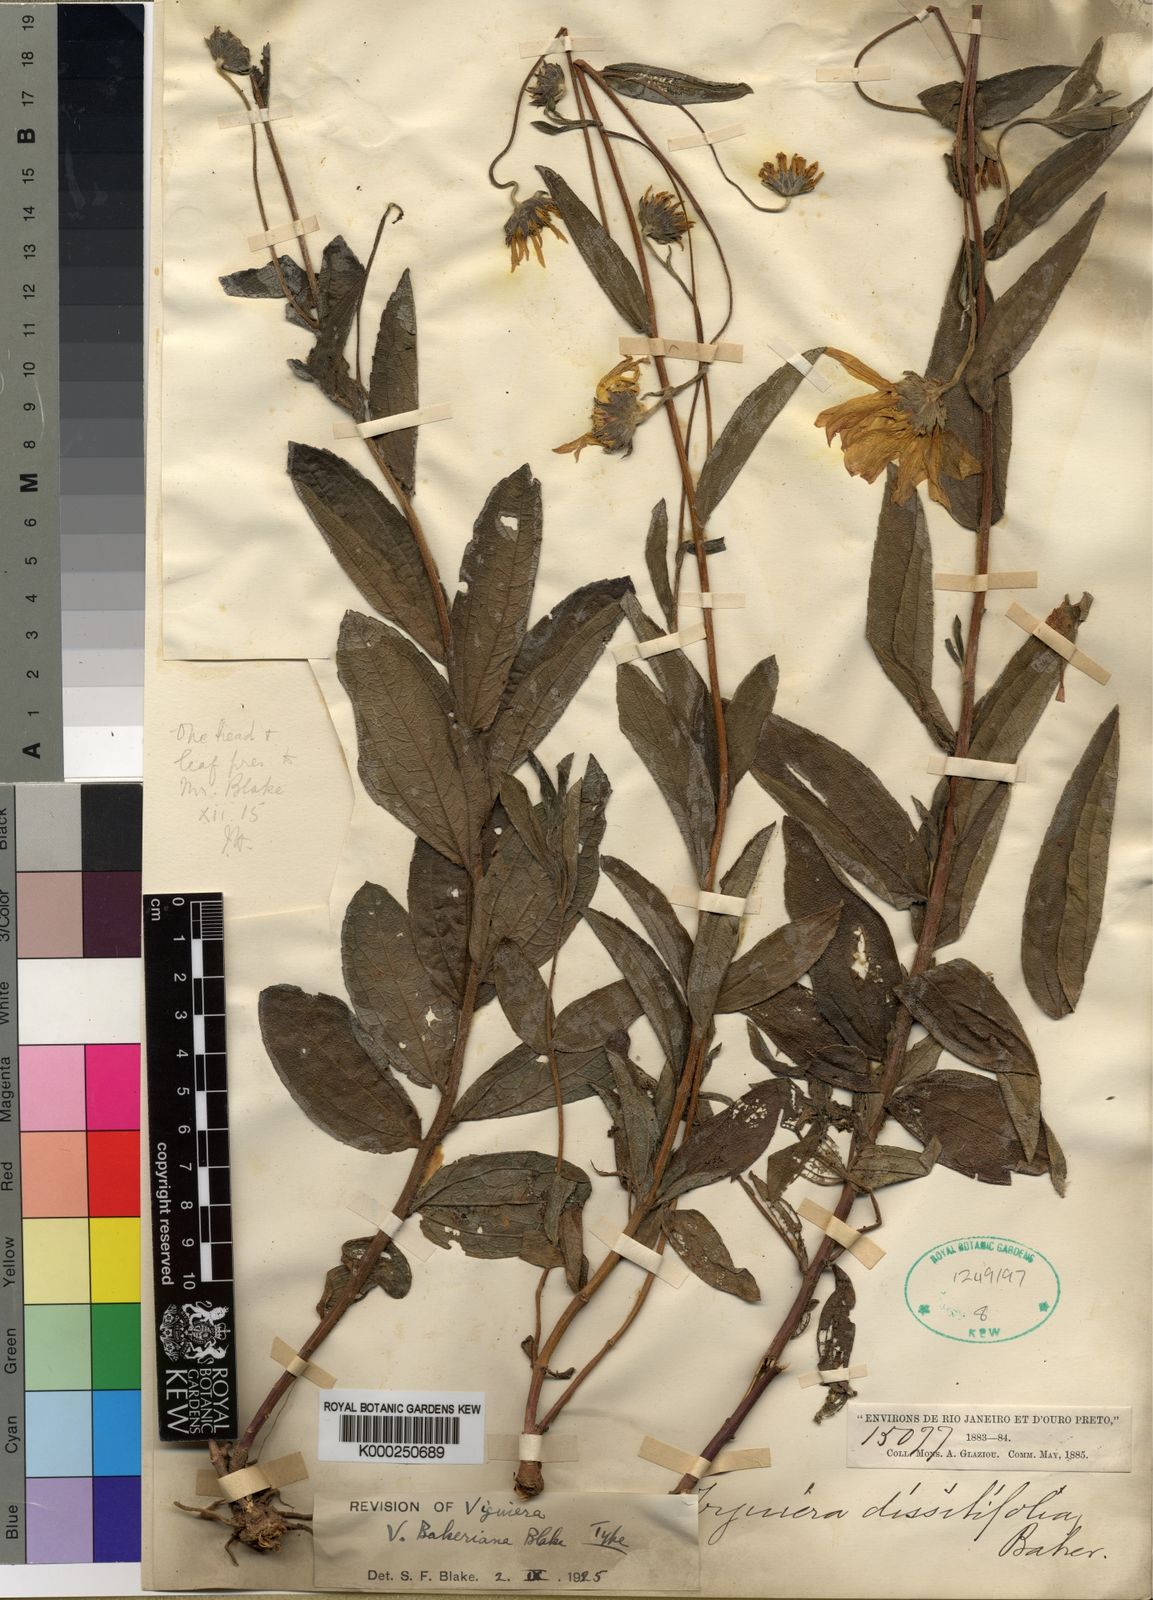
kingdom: Plantae
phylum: Tracheophyta
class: Magnoliopsida
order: Asterales
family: Asteraceae
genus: Aldama
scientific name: Aldama bakeriana
